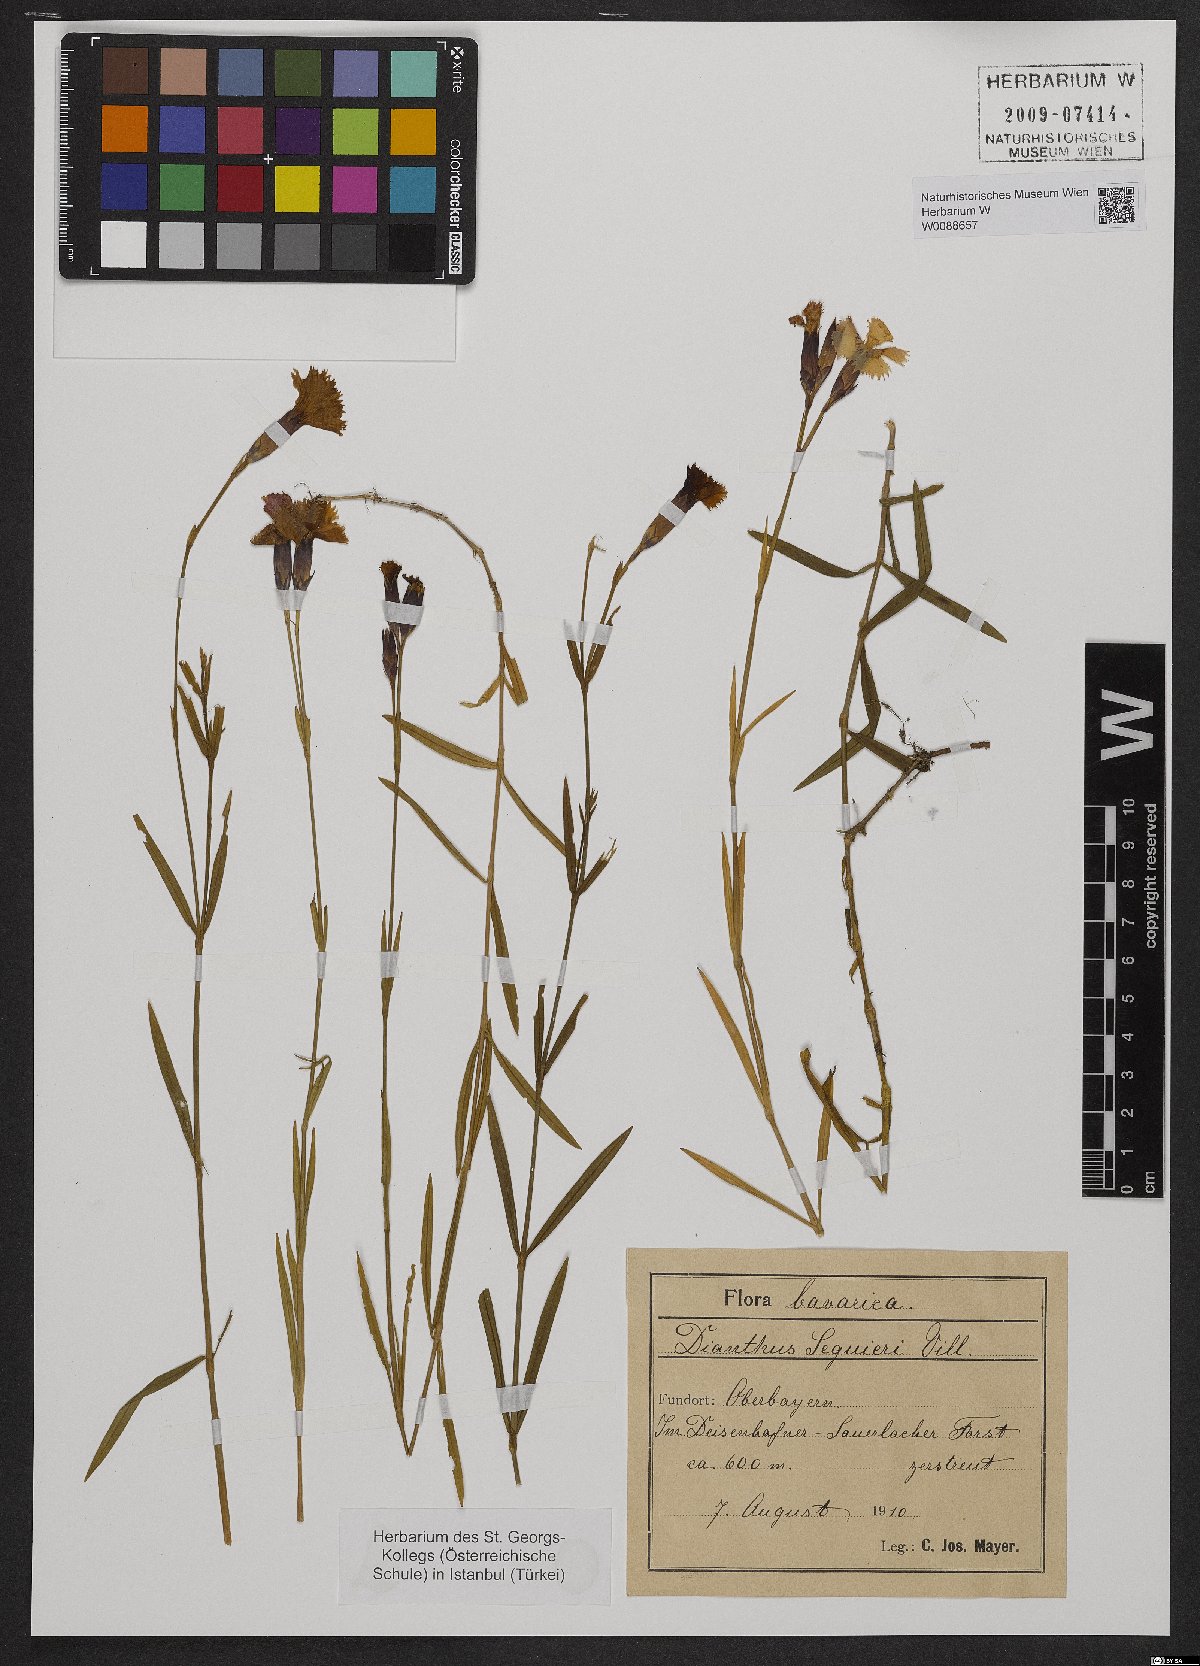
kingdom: Plantae
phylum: Tracheophyta
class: Magnoliopsida
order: Caryophyllales
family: Caryophyllaceae
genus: Dianthus
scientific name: Dianthus seguieri
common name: Ragged pink
